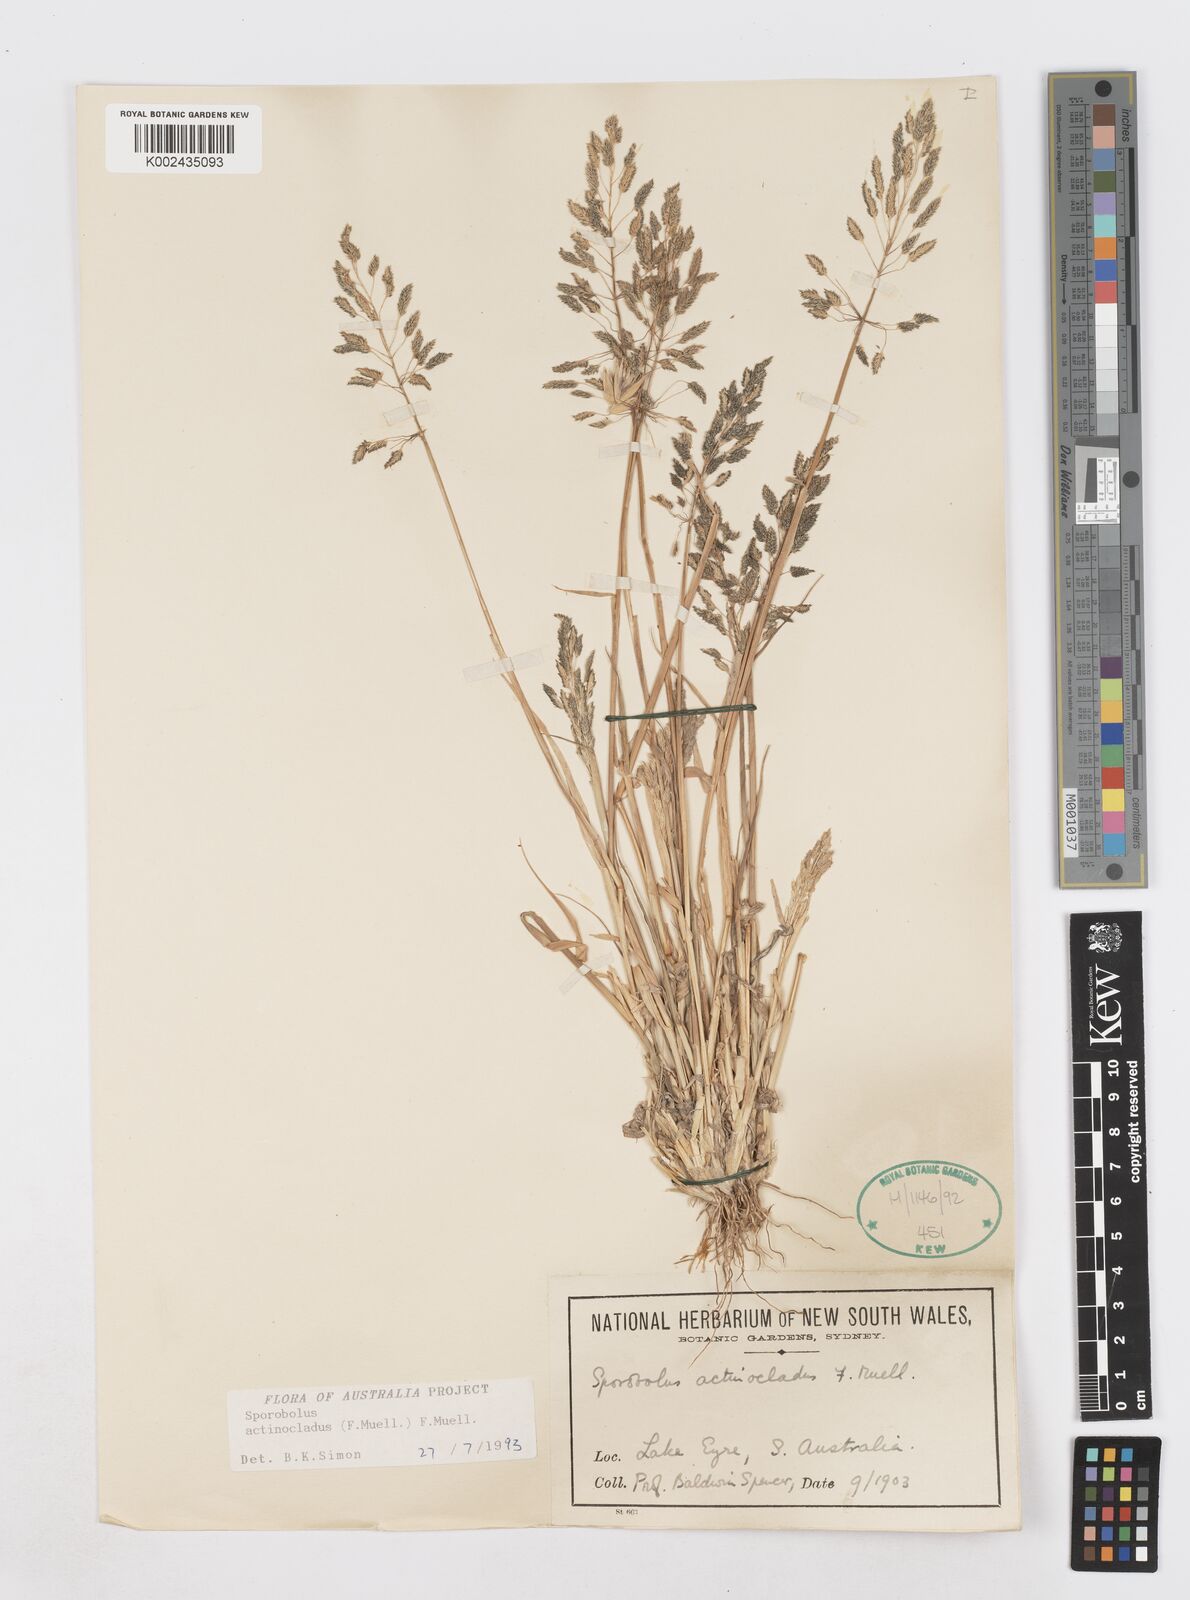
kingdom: Plantae
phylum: Tracheophyta
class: Liliopsida
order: Poales
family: Poaceae
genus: Sporobolus
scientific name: Sporobolus actinocladus
